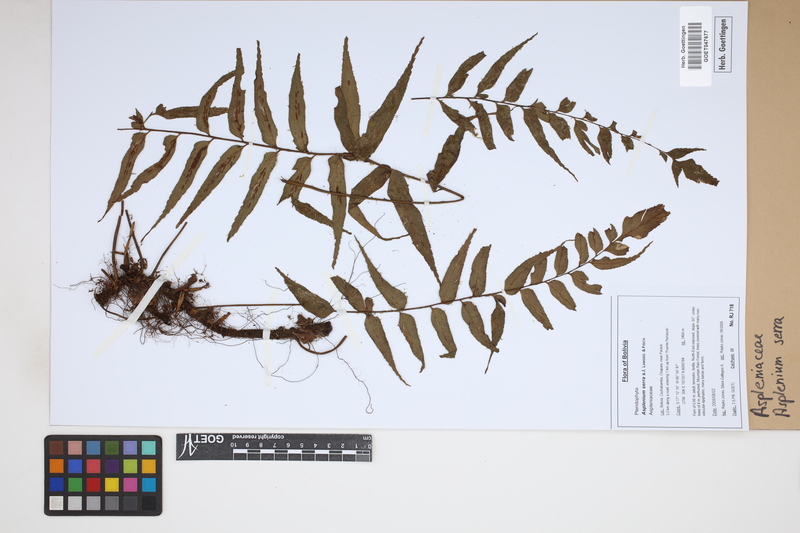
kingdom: Plantae
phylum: Tracheophyta
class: Polypodiopsida
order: Polypodiales
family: Aspleniaceae
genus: Asplenium
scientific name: Asplenium serra
